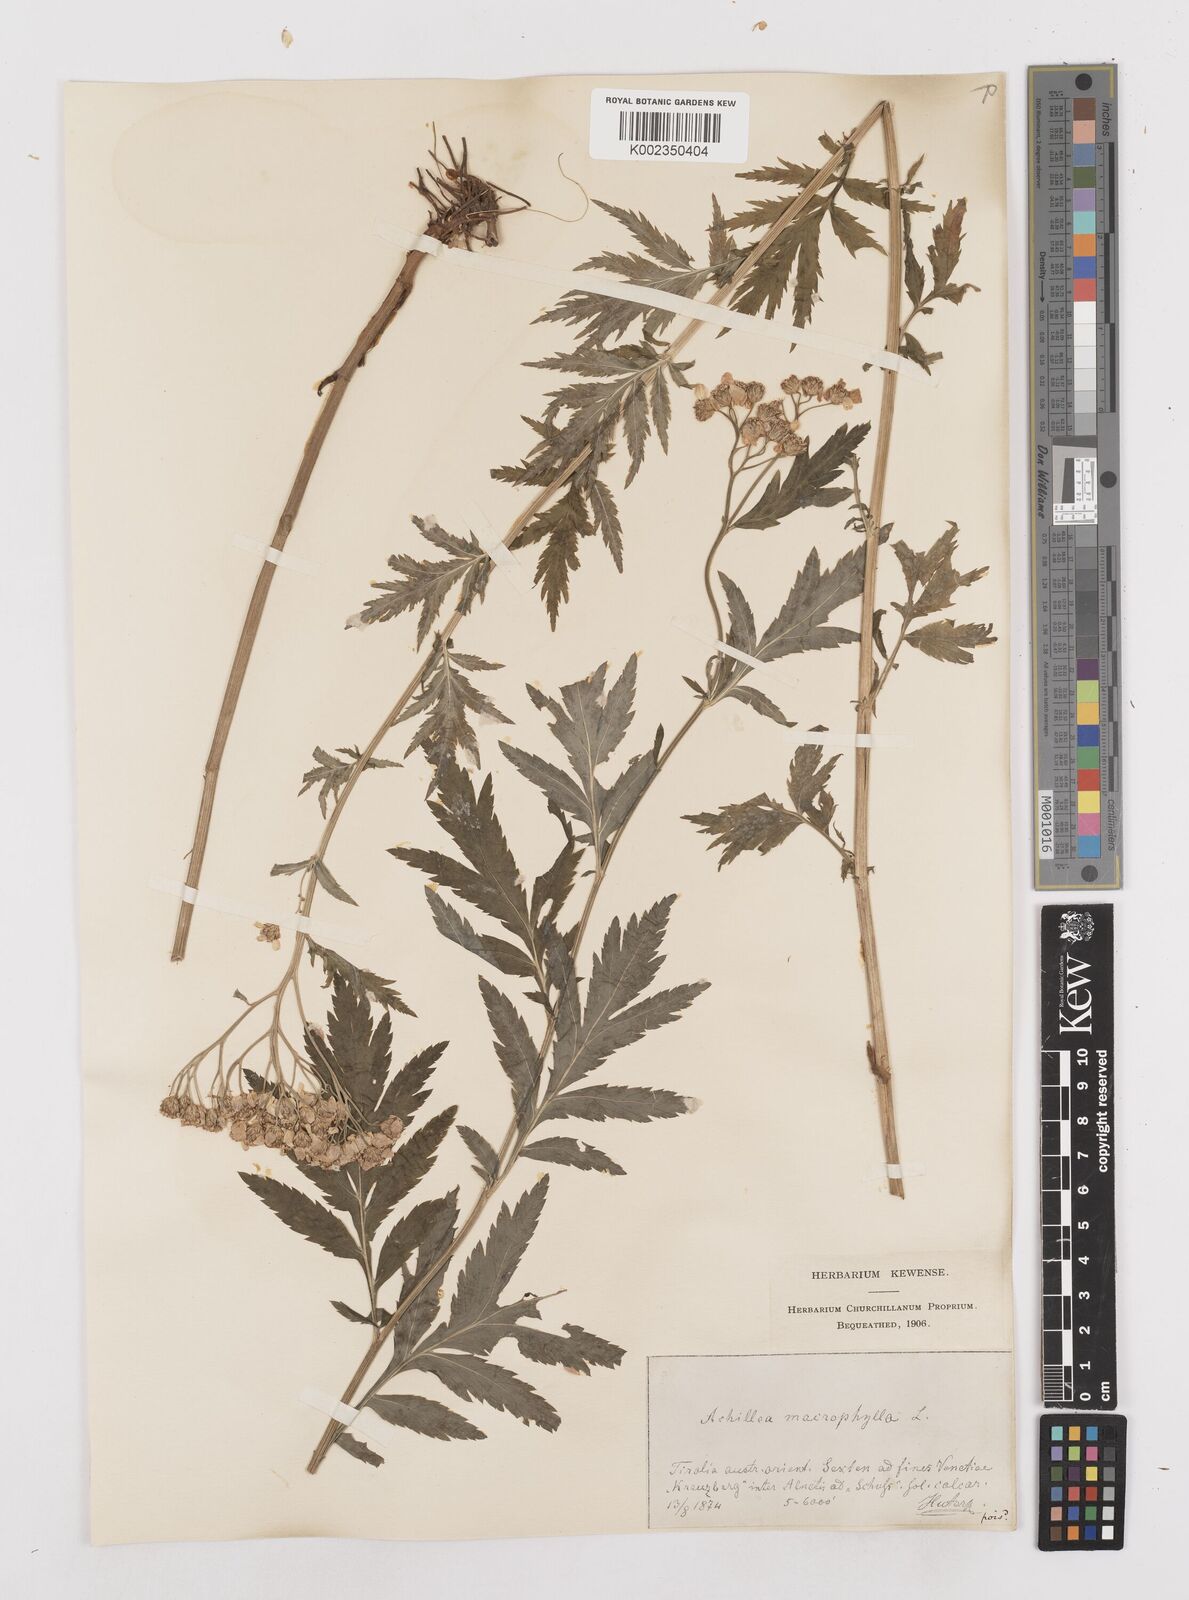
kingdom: Plantae
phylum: Tracheophyta
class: Magnoliopsida
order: Asterales
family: Asteraceae
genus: Achillea
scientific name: Achillea macrophylla
